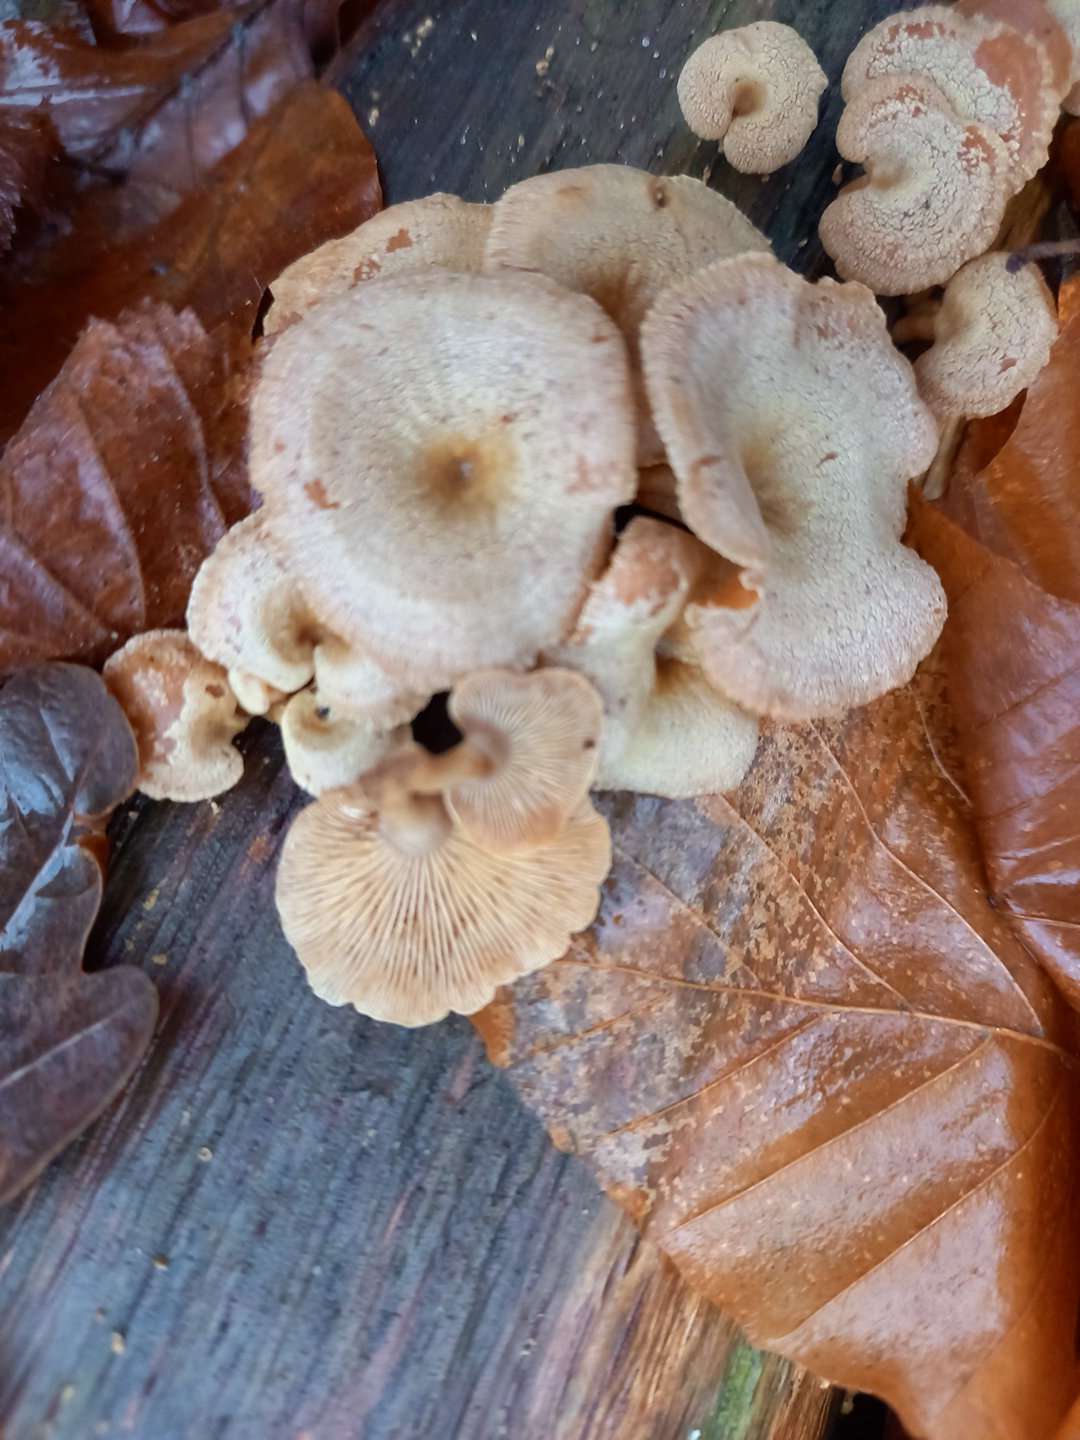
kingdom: Fungi
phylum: Basidiomycota
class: Agaricomycetes
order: Agaricales
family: Mycenaceae
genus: Panellus
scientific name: Panellus stipticus
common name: kliddet epaulethat
